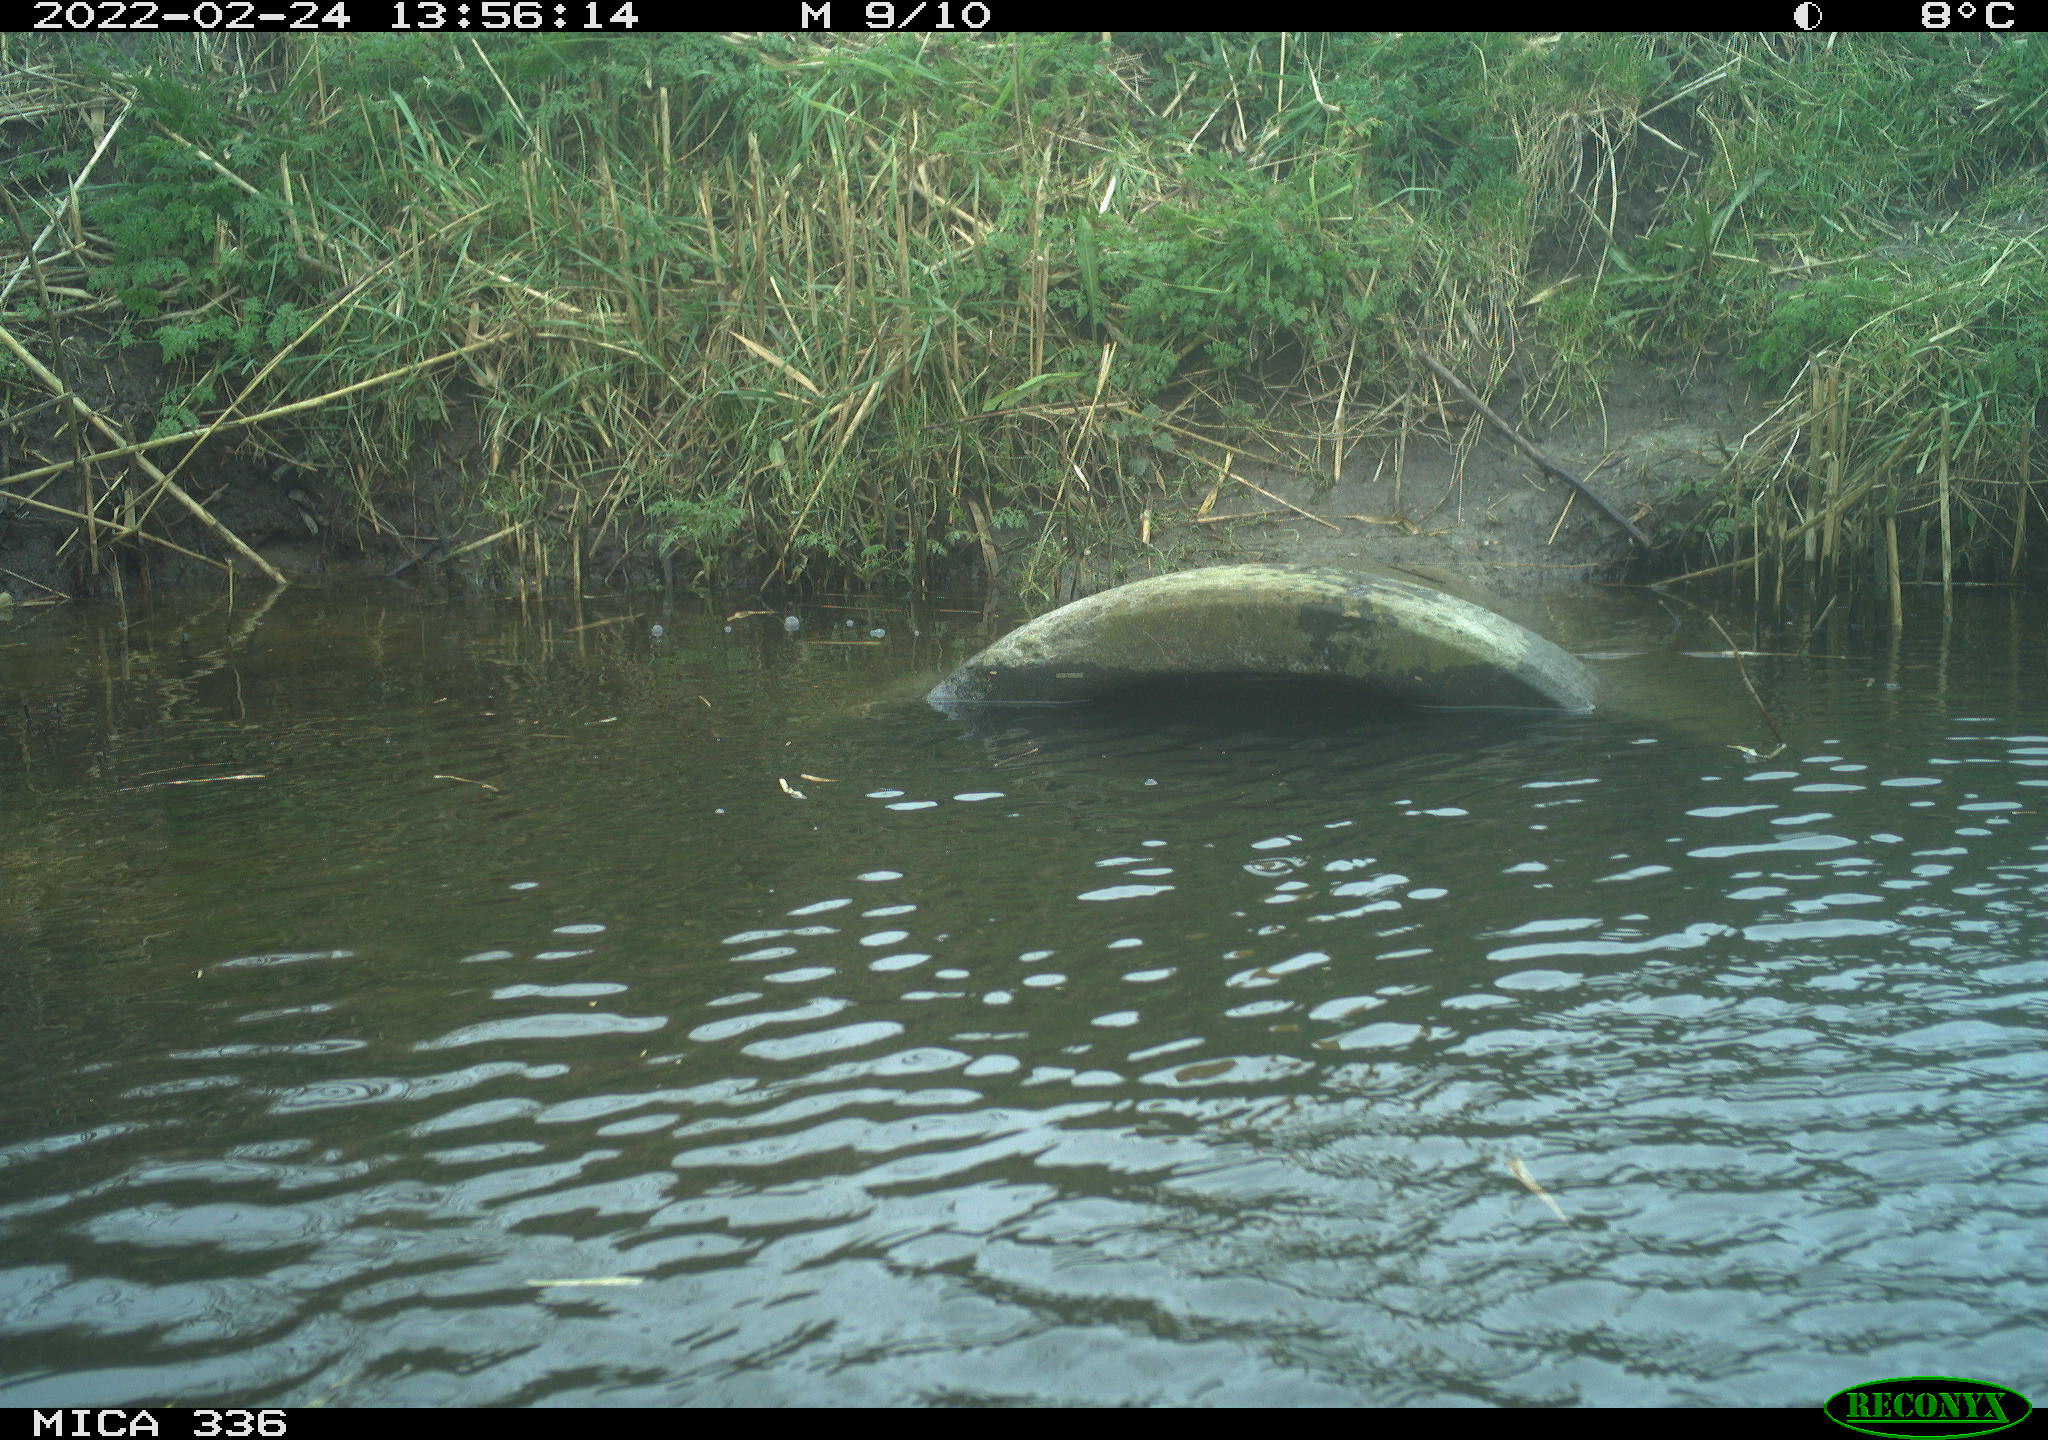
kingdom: Animalia
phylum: Chordata
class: Aves
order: Gruiformes
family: Rallidae
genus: Gallinula
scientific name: Gallinula chloropus
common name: Common moorhen
